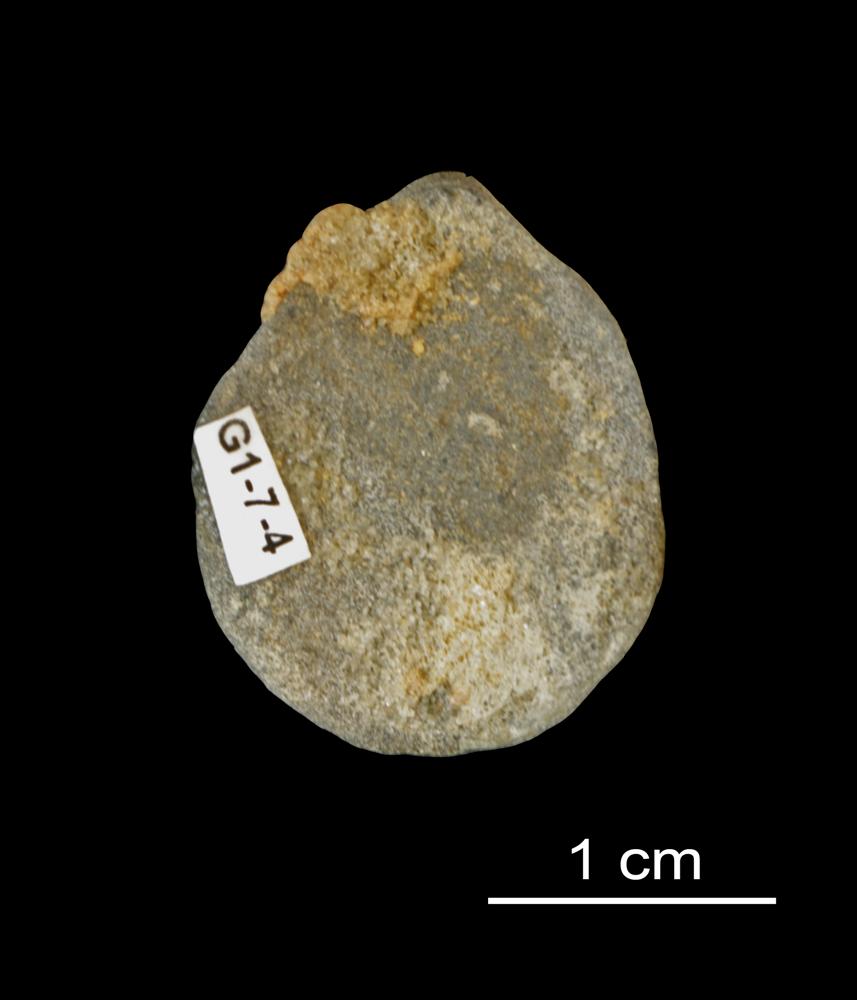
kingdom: Animalia
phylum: Brachiopoda
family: Paterinidae
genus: Mickwitzia
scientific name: Mickwitzia
